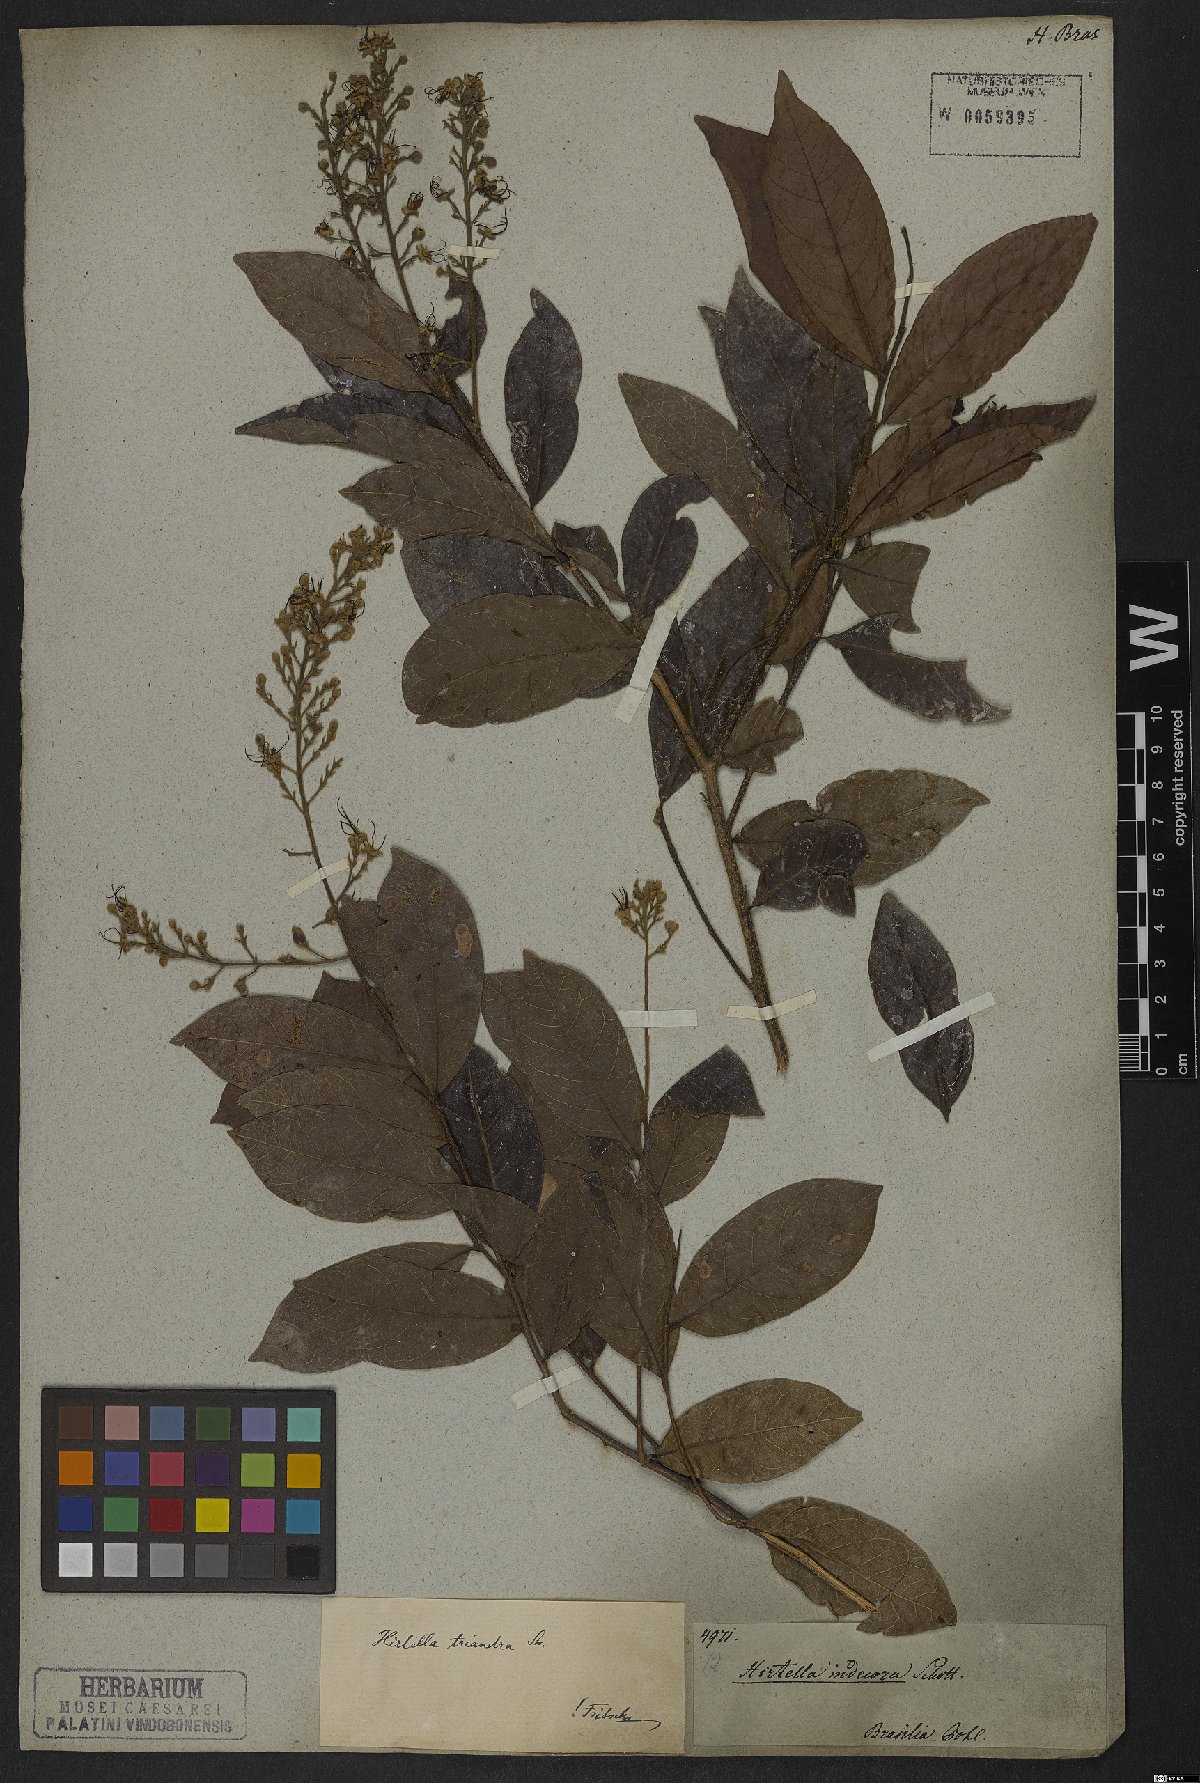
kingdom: Plantae
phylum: Tracheophyta
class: Magnoliopsida
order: Malpighiales
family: Chrysobalanaceae
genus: Hirtella
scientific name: Hirtella triandra
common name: Hairy plum
